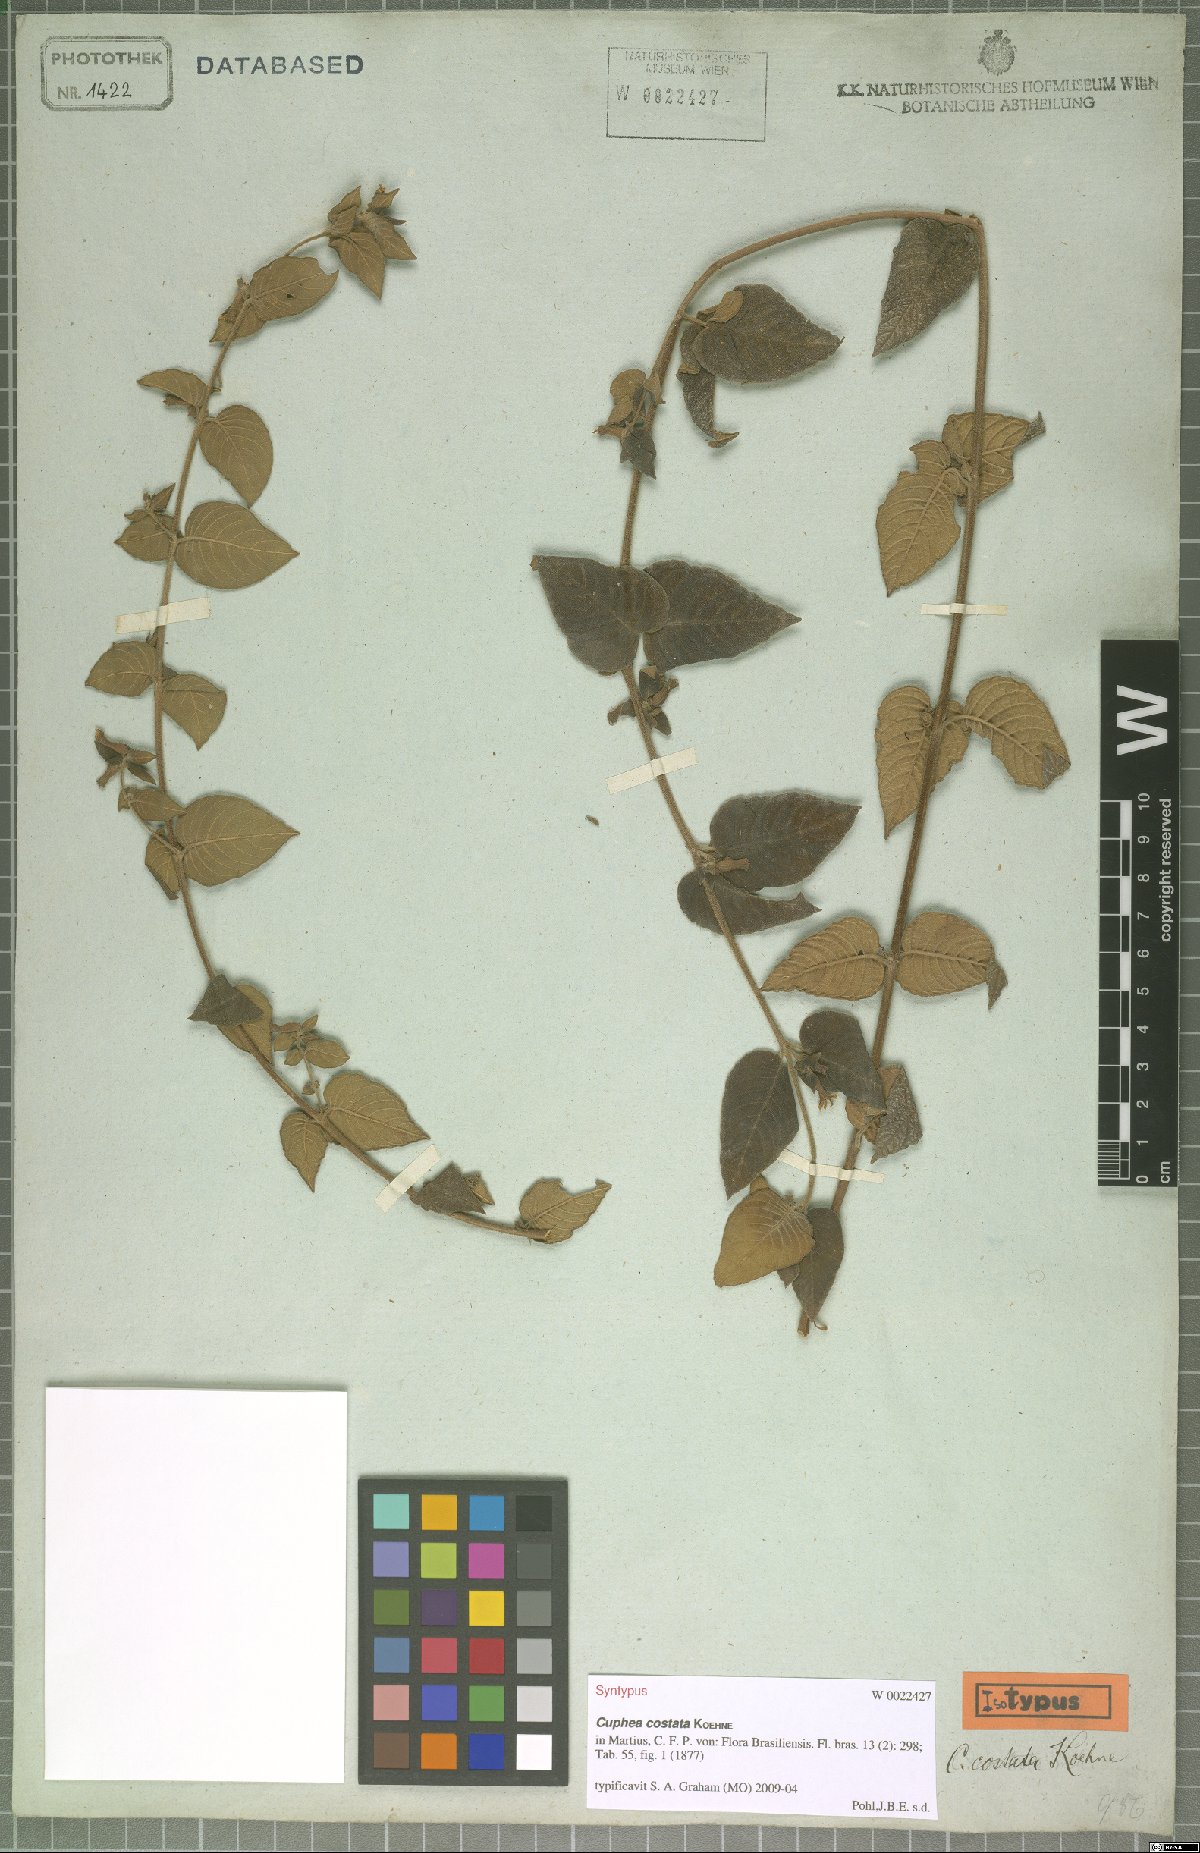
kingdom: Plantae
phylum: Tracheophyta
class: Magnoliopsida
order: Myrtales
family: Lythraceae
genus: Cuphea
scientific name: Cuphea sessiliflora
